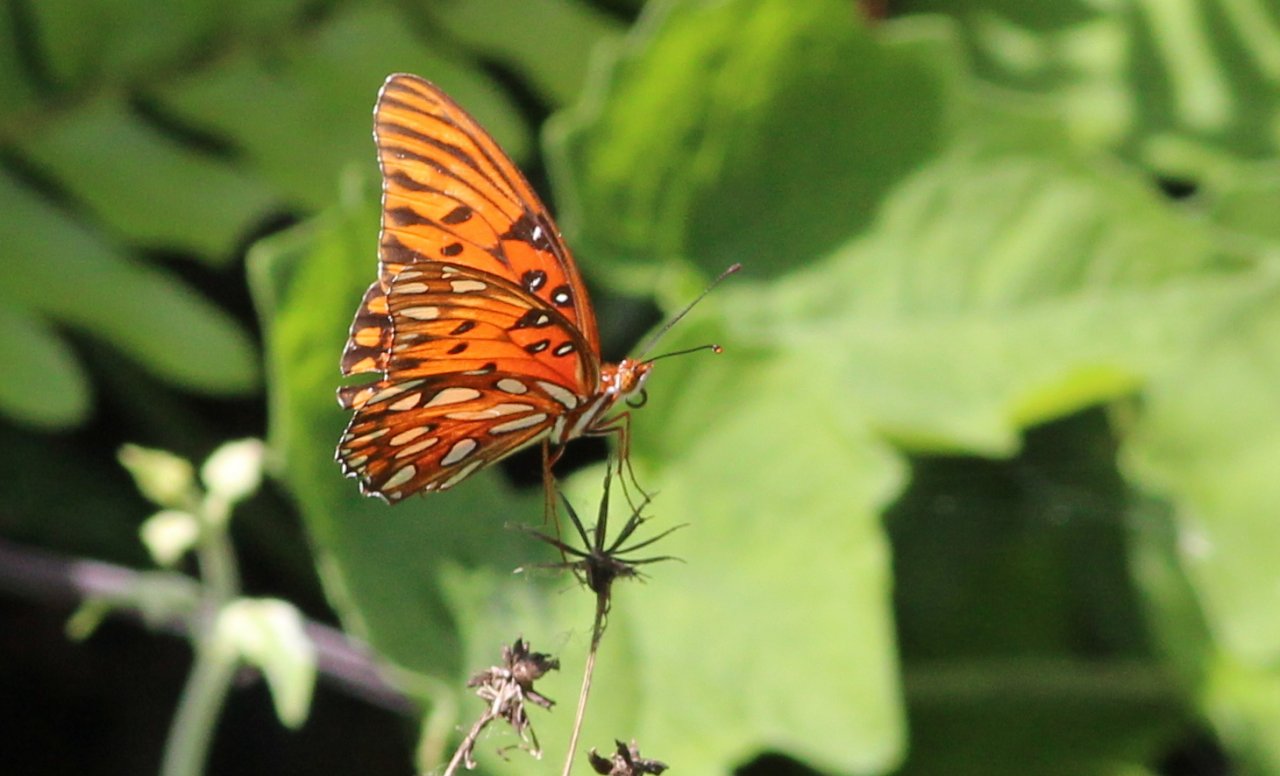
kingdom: Animalia
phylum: Arthropoda
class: Insecta
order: Lepidoptera
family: Nymphalidae
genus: Dione
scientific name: Dione vanillae
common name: Gulf Fritillary
